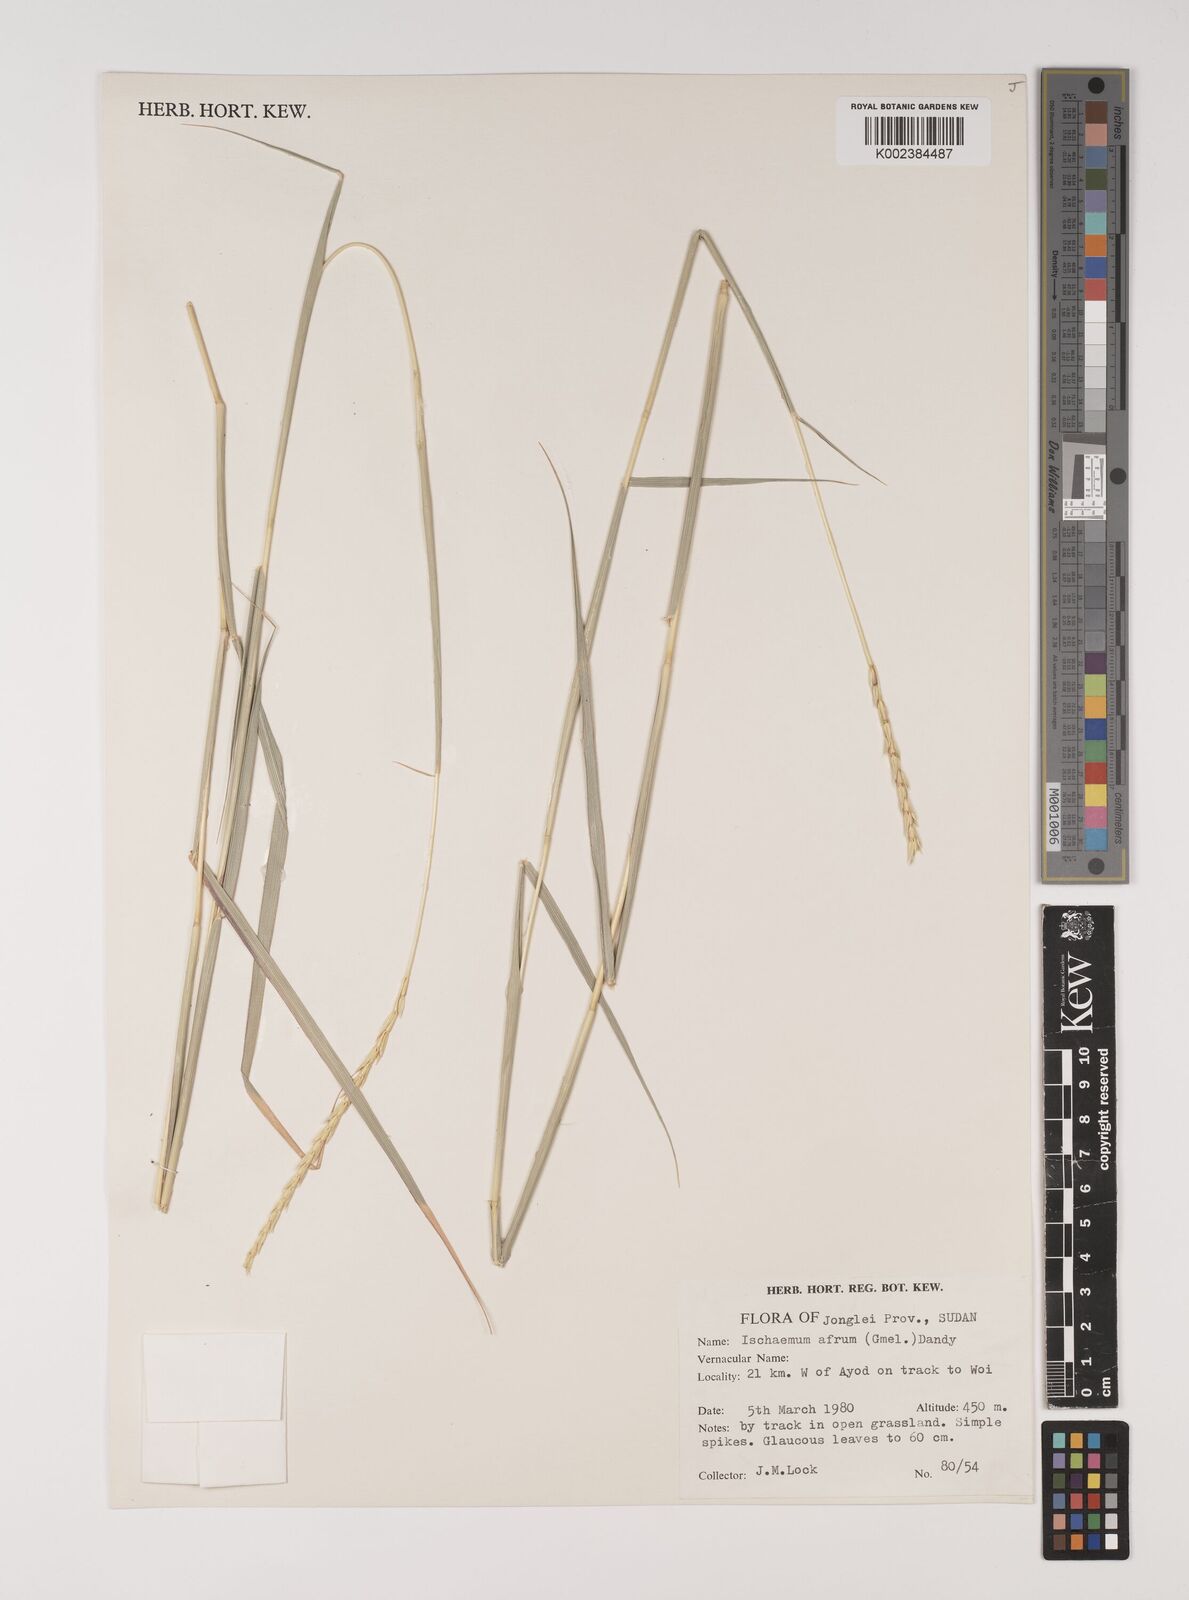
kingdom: Plantae
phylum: Tracheophyta
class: Liliopsida
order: Poales
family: Poaceae
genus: Ischaemum
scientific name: Ischaemum afrum
